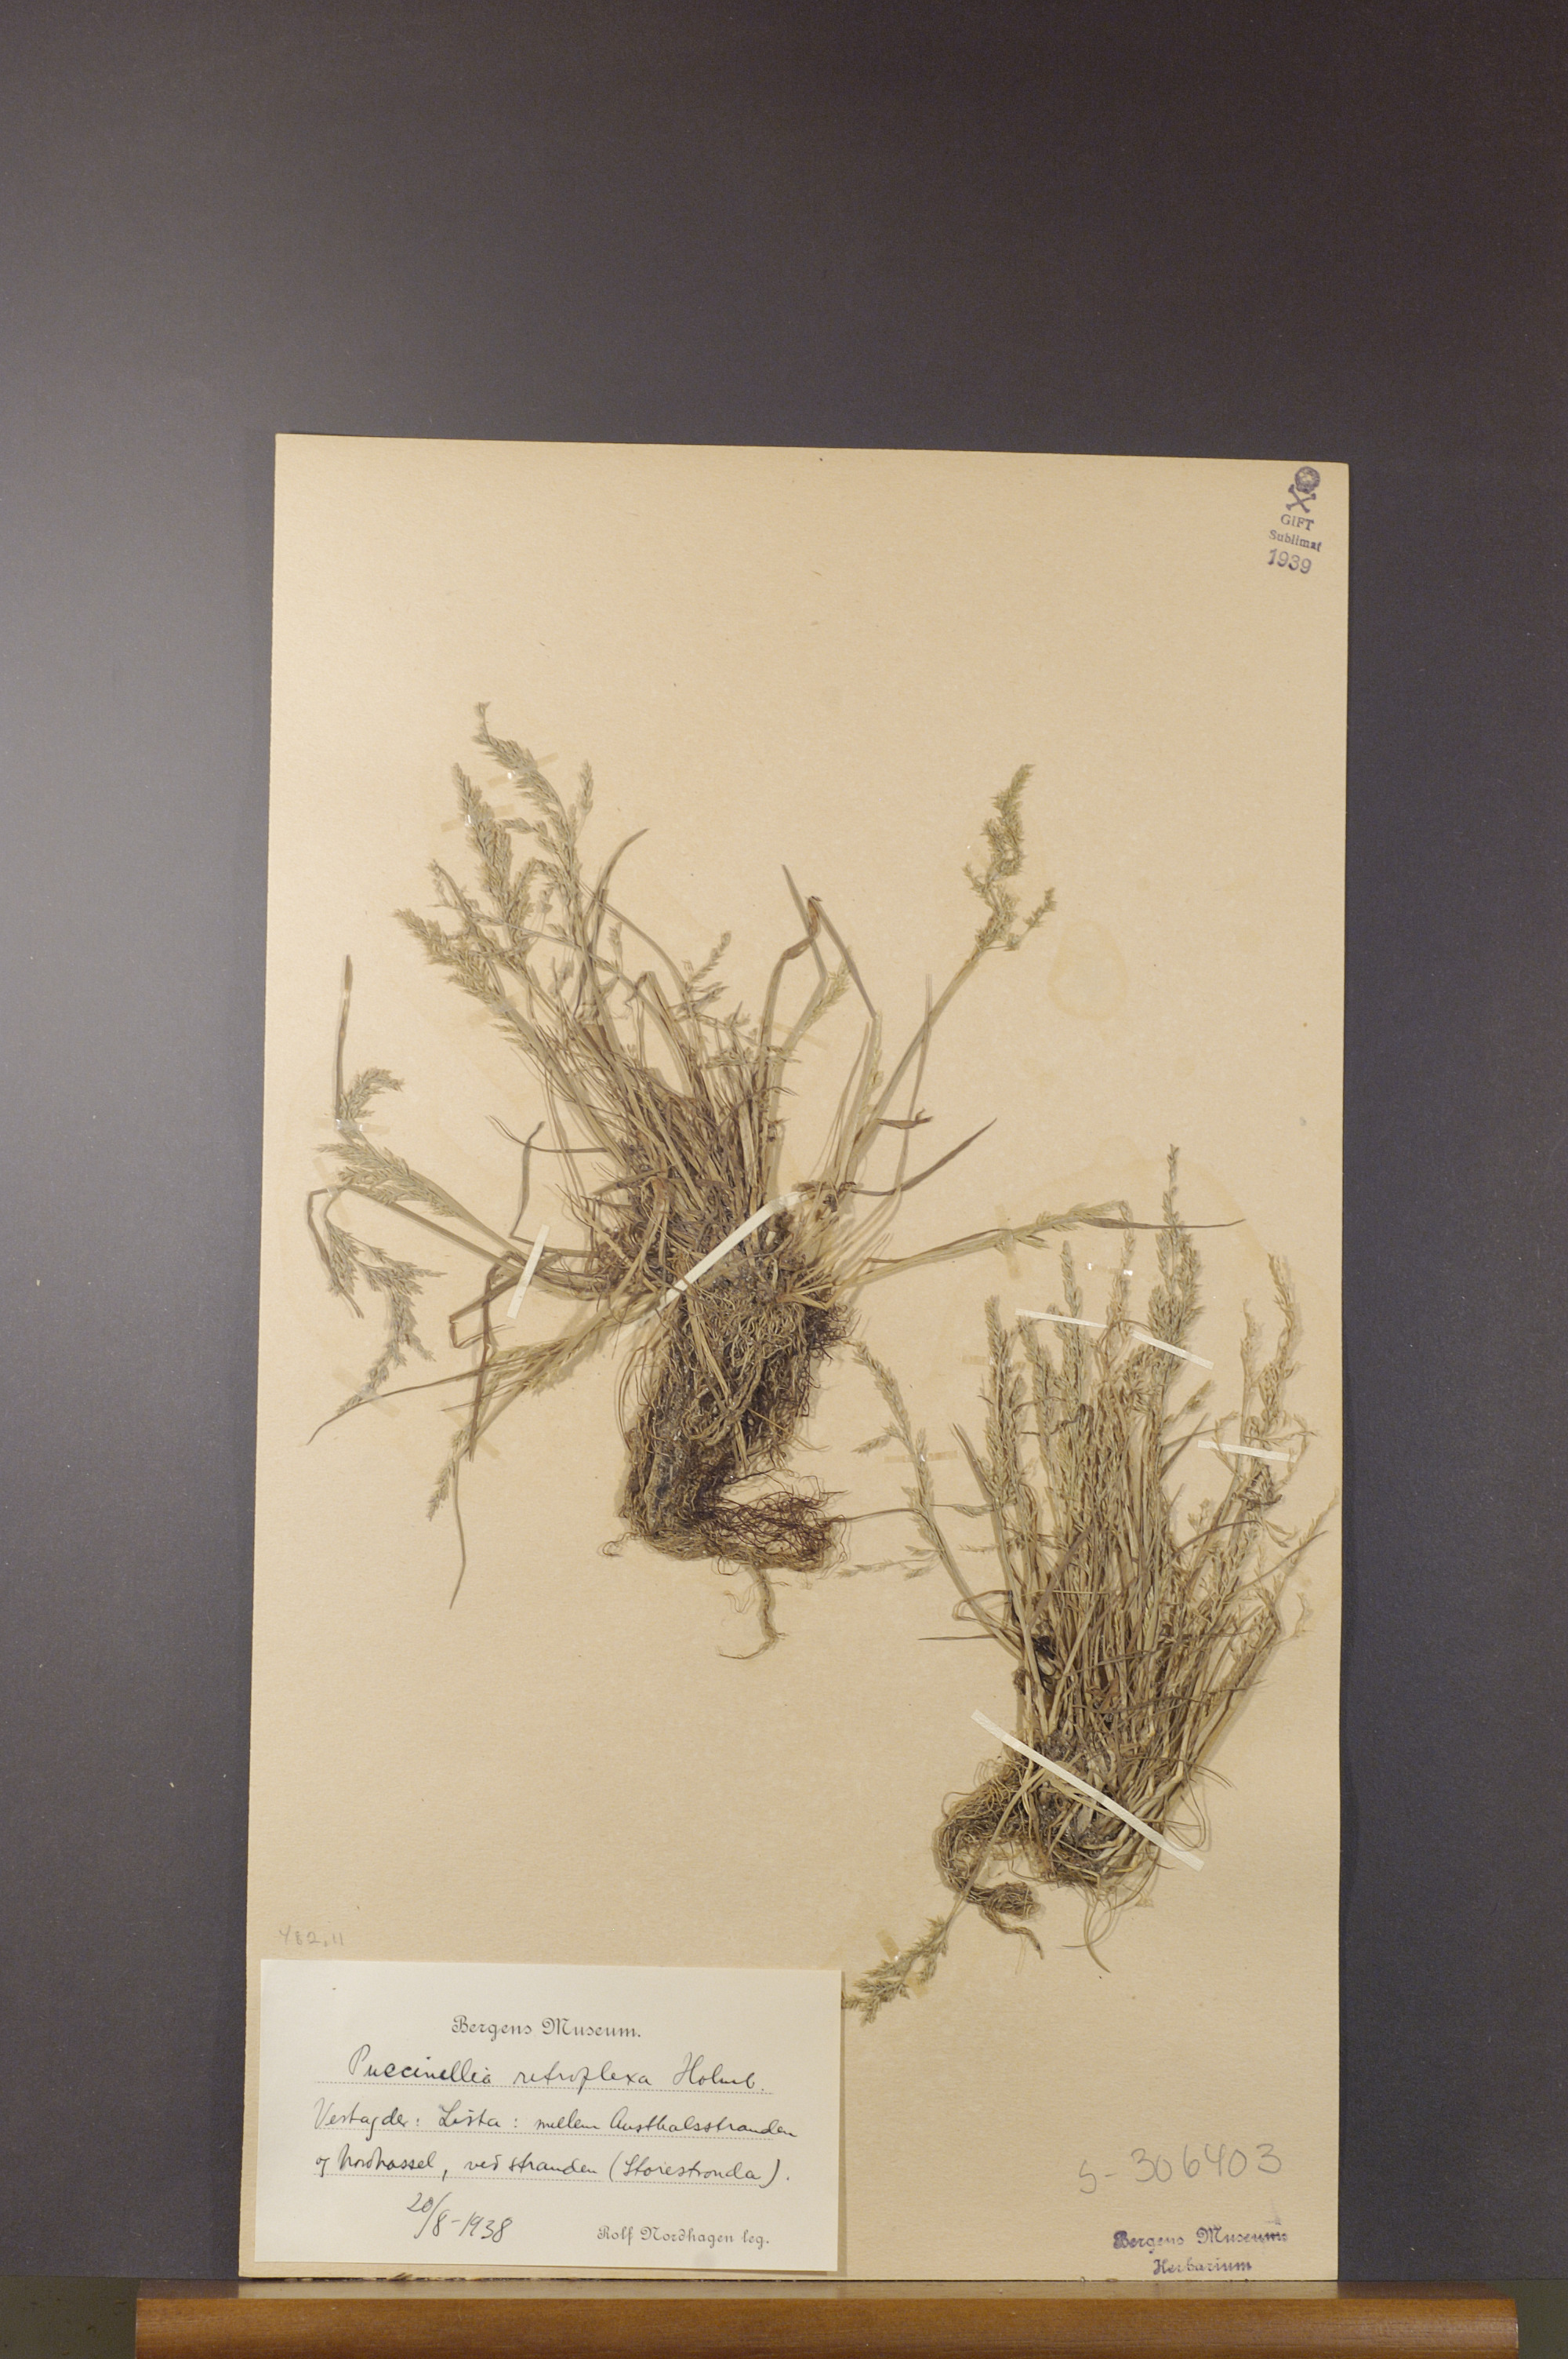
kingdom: Plantae
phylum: Tracheophyta
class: Liliopsida
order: Poales
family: Poaceae
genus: Puccinellia
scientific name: Puccinellia distans
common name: Weeping alkaligrass
